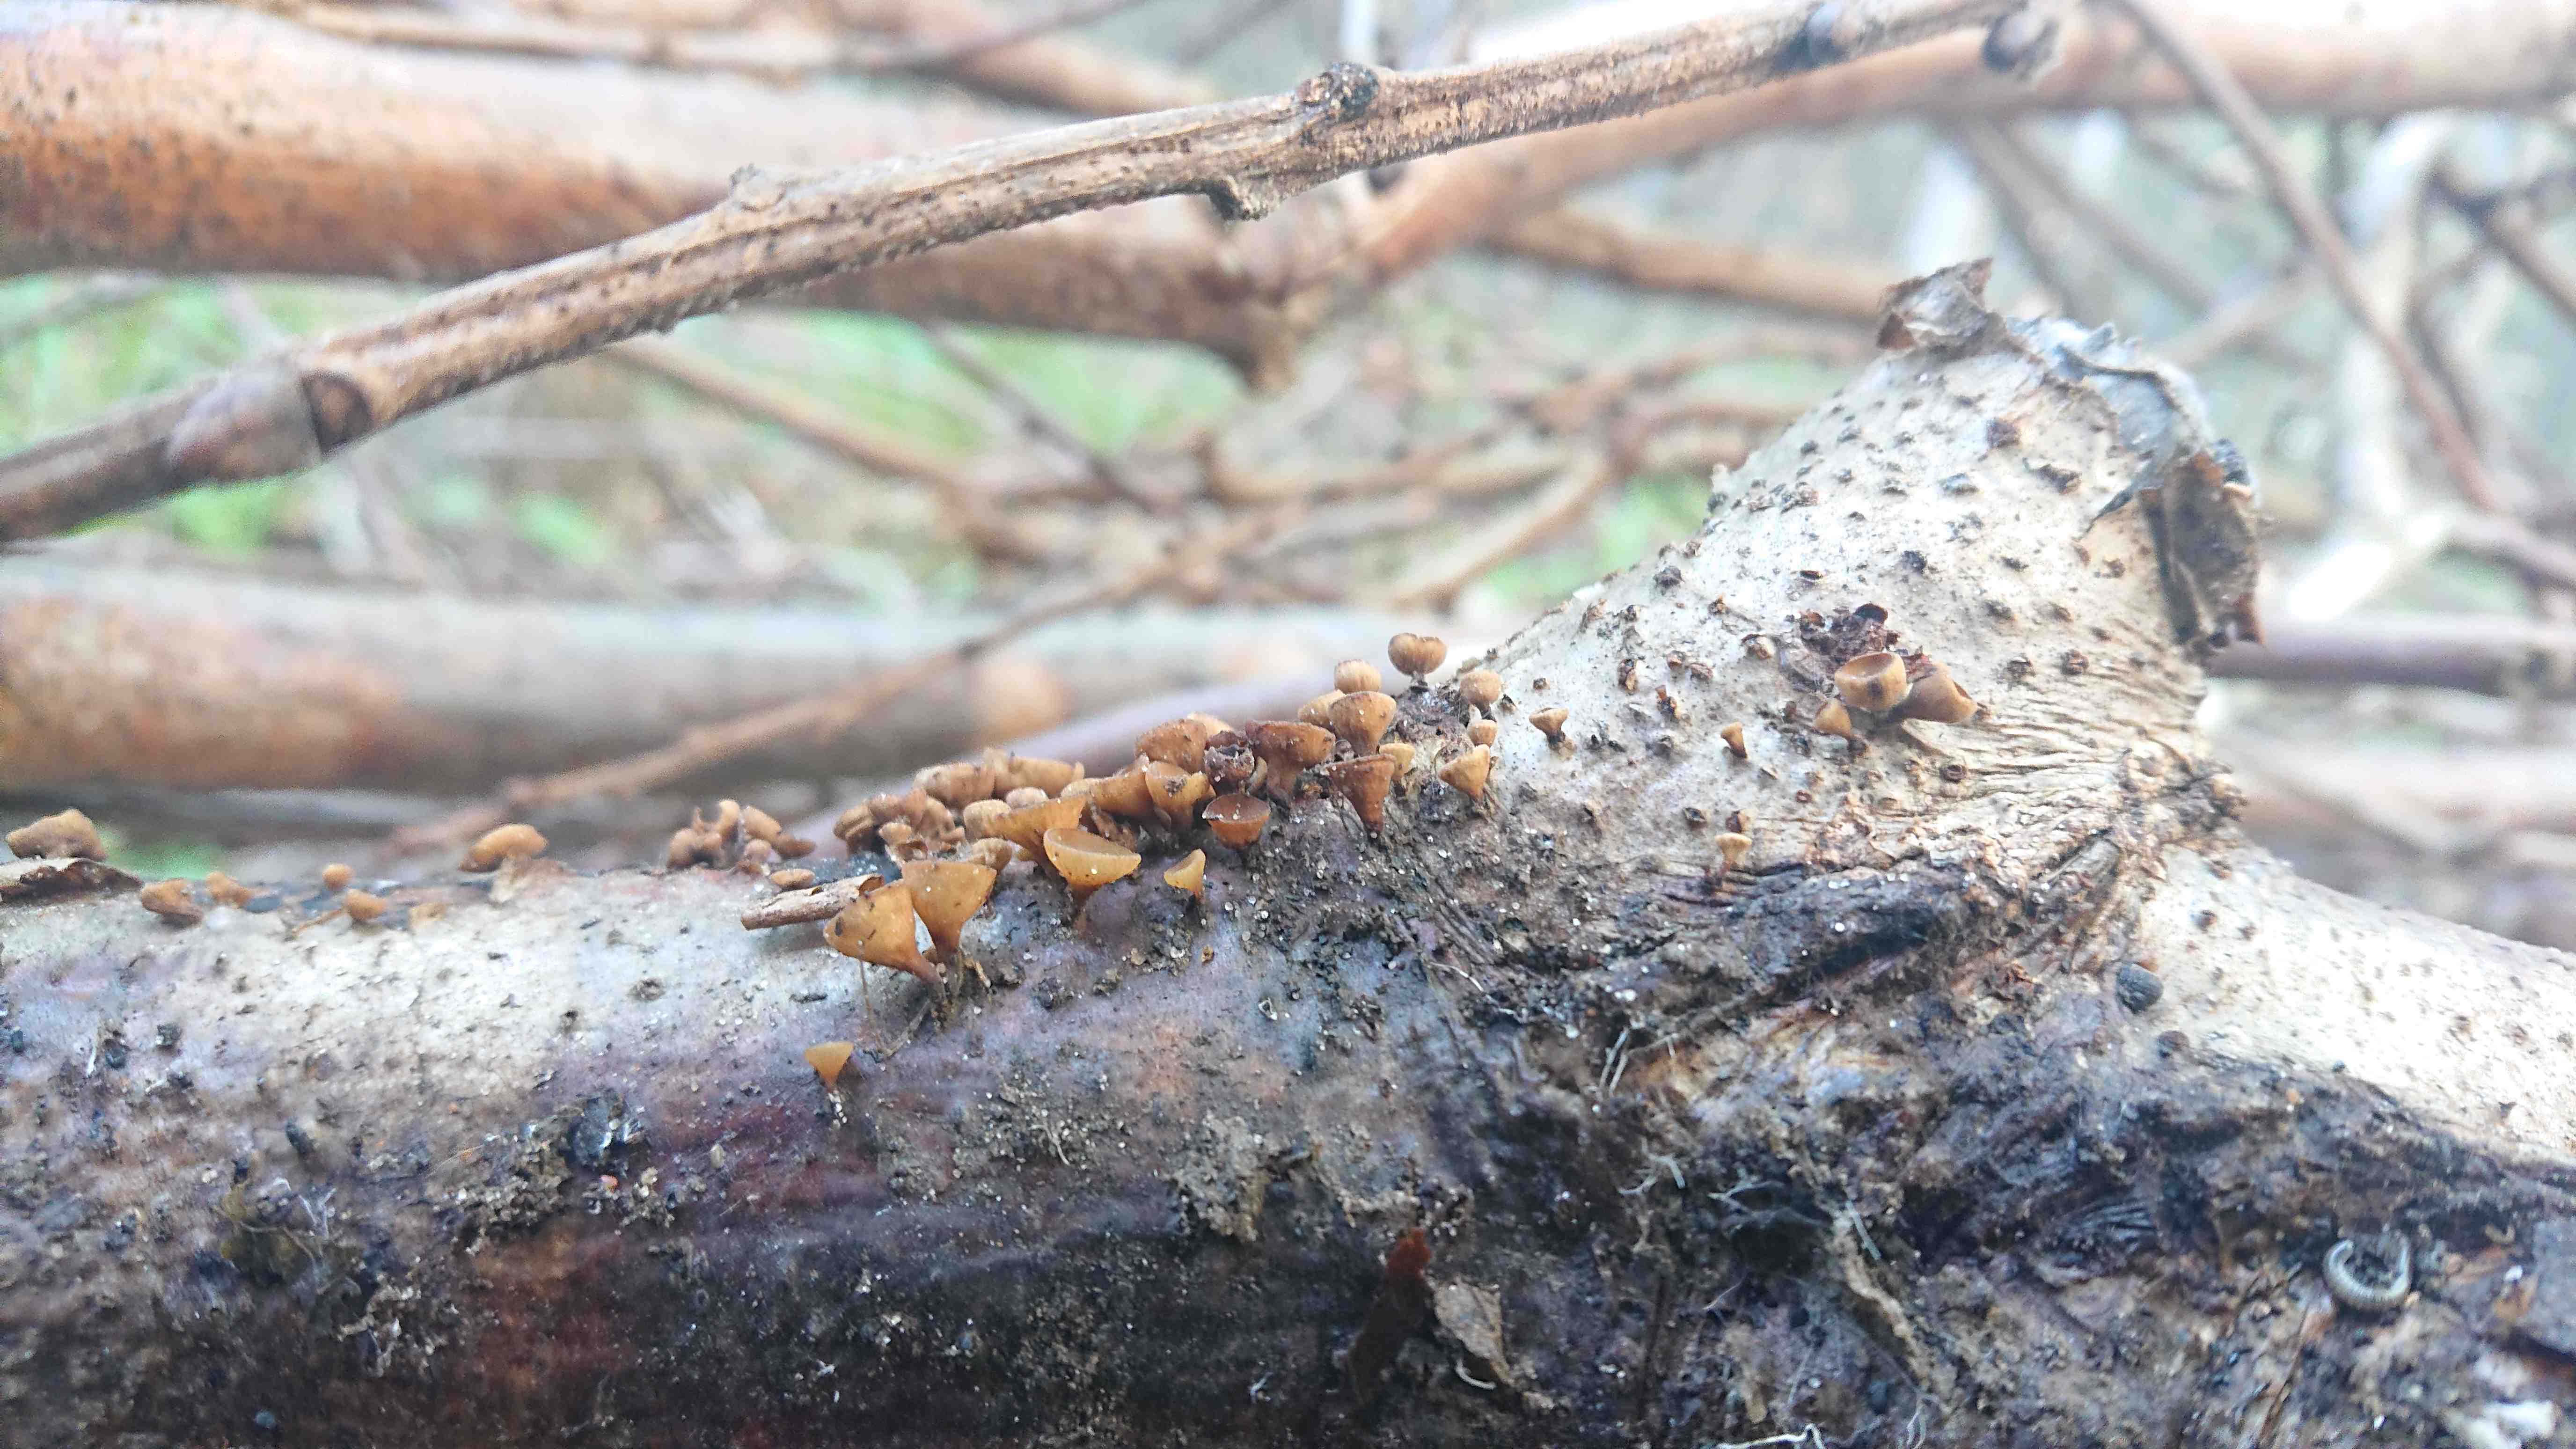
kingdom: Fungi
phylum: Ascomycota
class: Leotiomycetes
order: Helotiales
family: Rutstroemiaceae
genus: Rutstroemia
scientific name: Rutstroemia firma
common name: gren-brunskive
